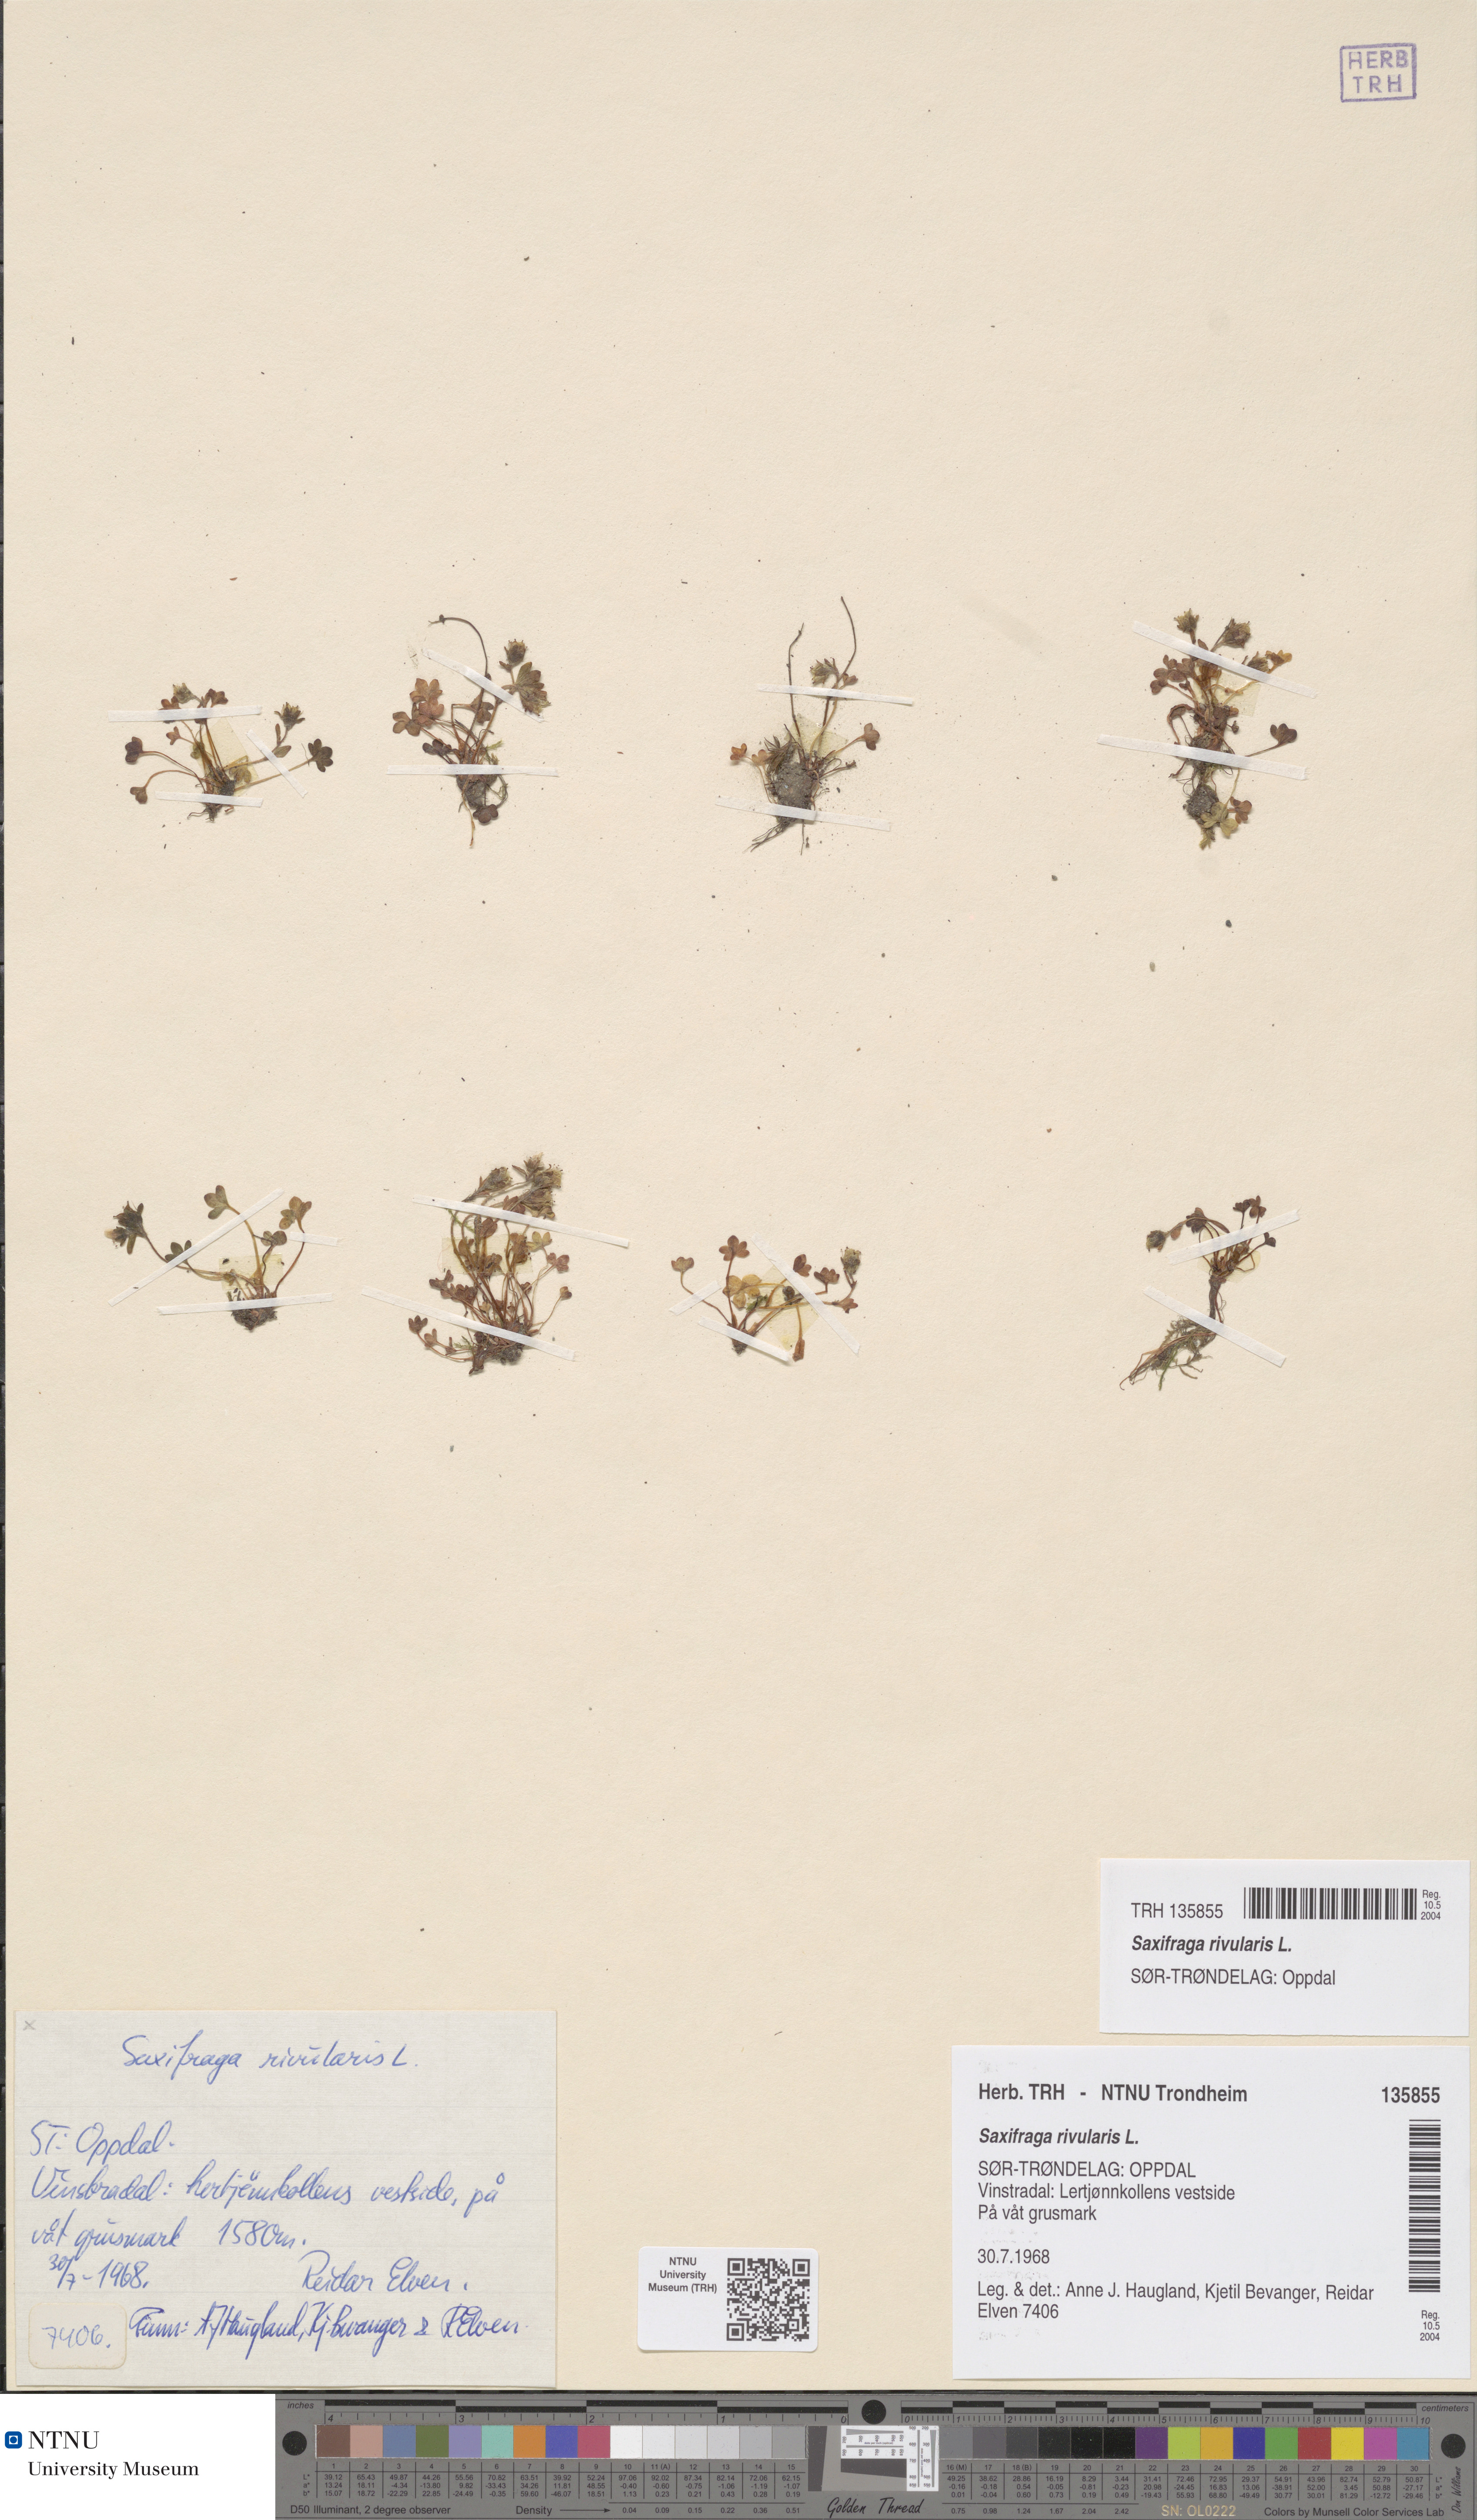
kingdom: Plantae
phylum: Tracheophyta
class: Magnoliopsida
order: Saxifragales
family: Saxifragaceae
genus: Saxifraga
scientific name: Saxifraga rivularis
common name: Highland saxifrage
